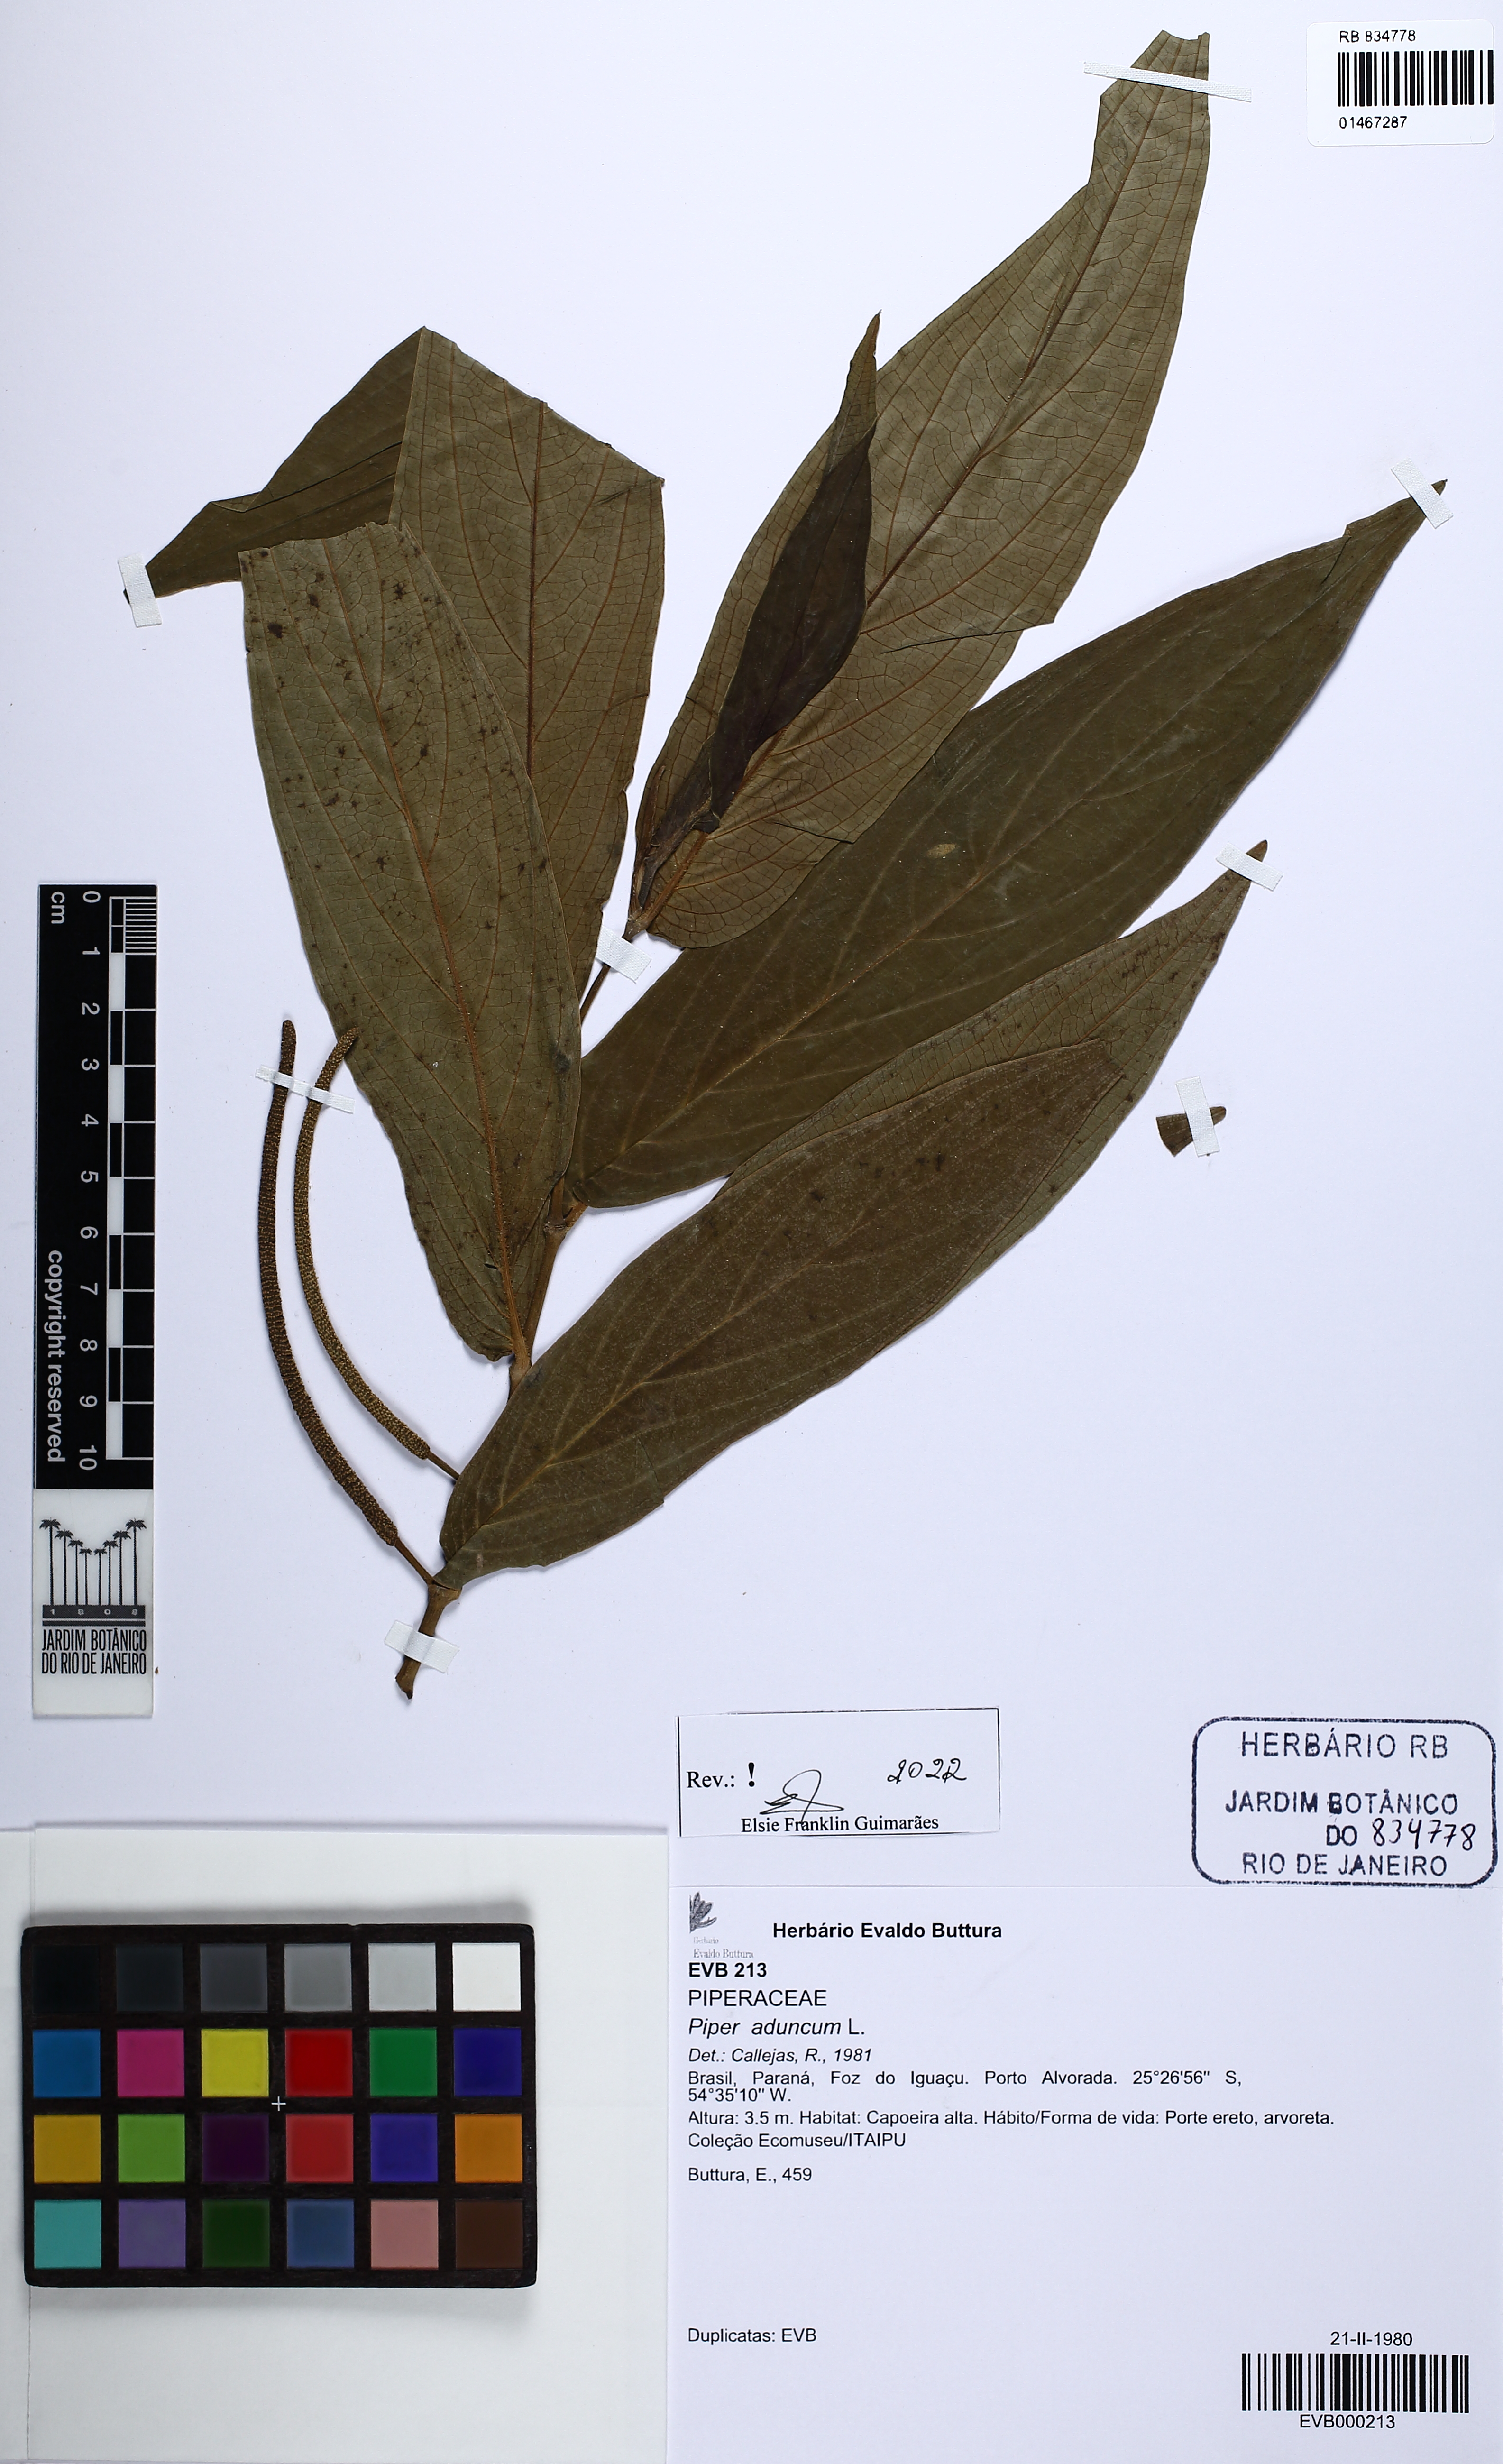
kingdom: Plantae
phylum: Tracheophyta
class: Magnoliopsida
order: Piperales
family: Piperaceae
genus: Piper
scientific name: Piper aduncum
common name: Spiked pepper
